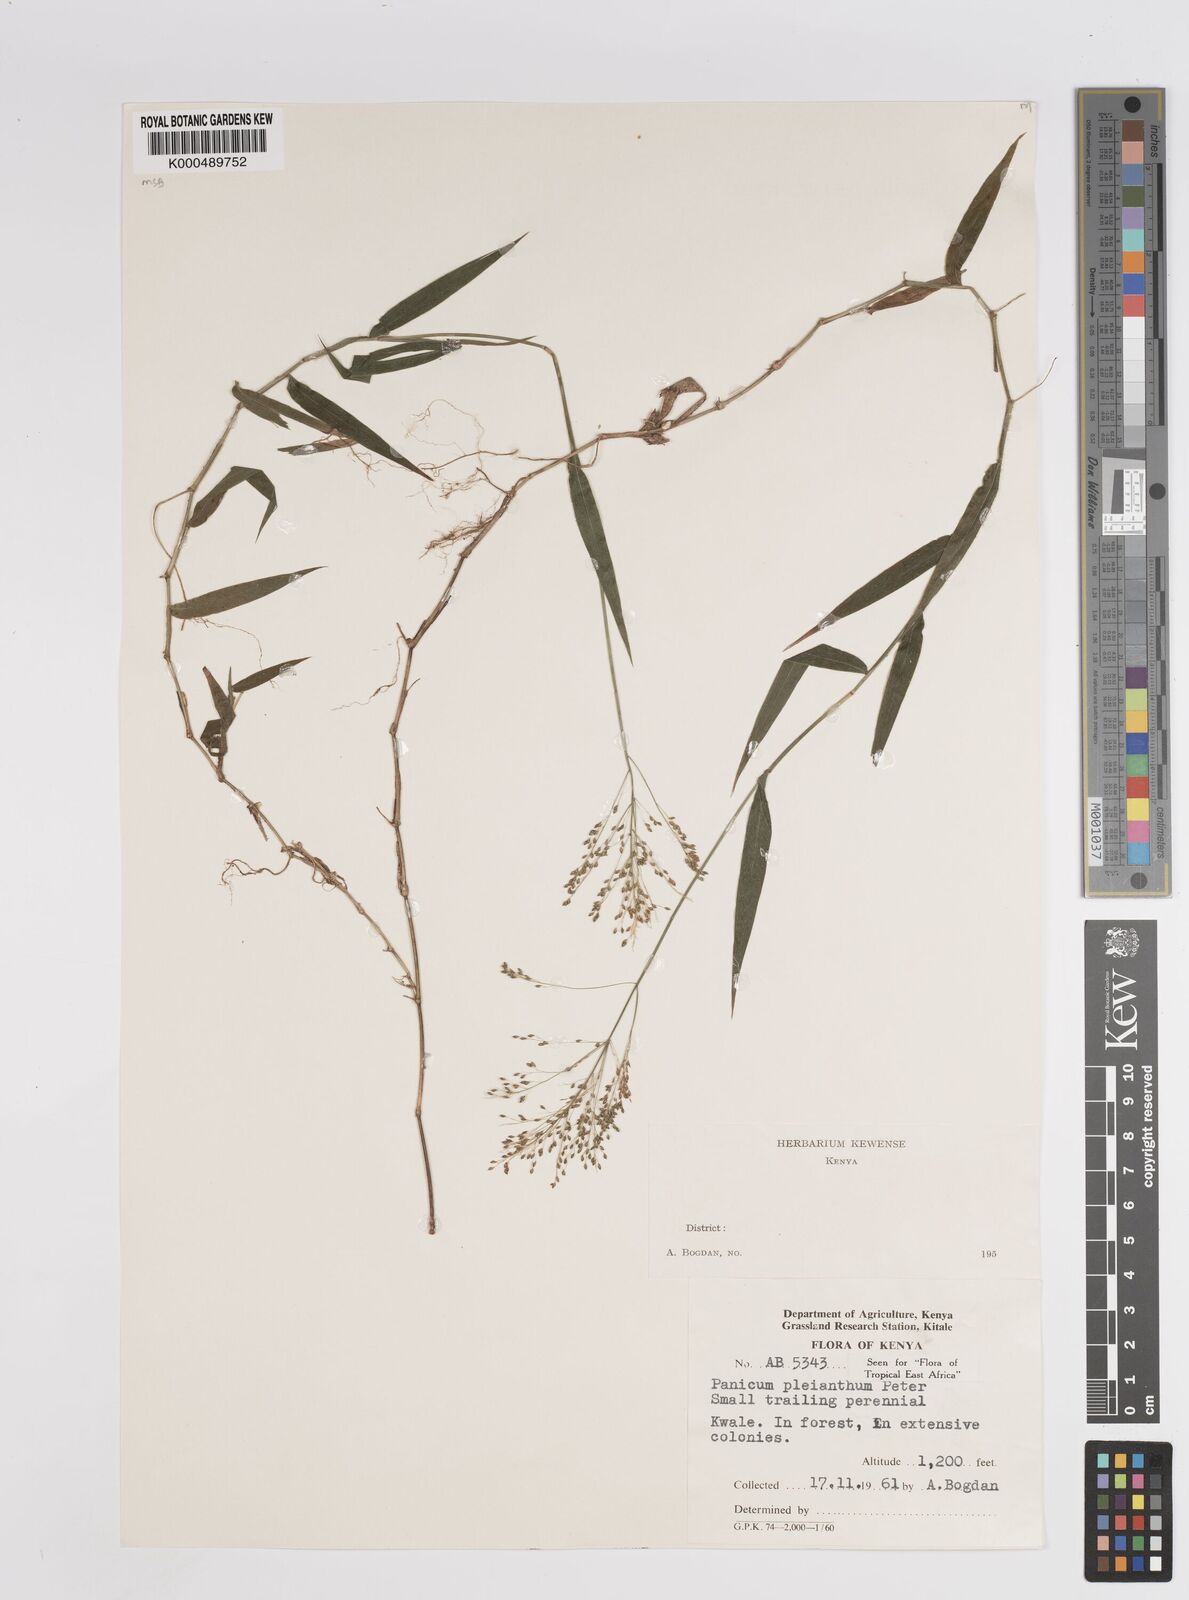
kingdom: Plantae
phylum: Tracheophyta
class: Liliopsida
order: Poales
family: Poaceae
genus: Panicum
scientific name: Panicum pleianthum
